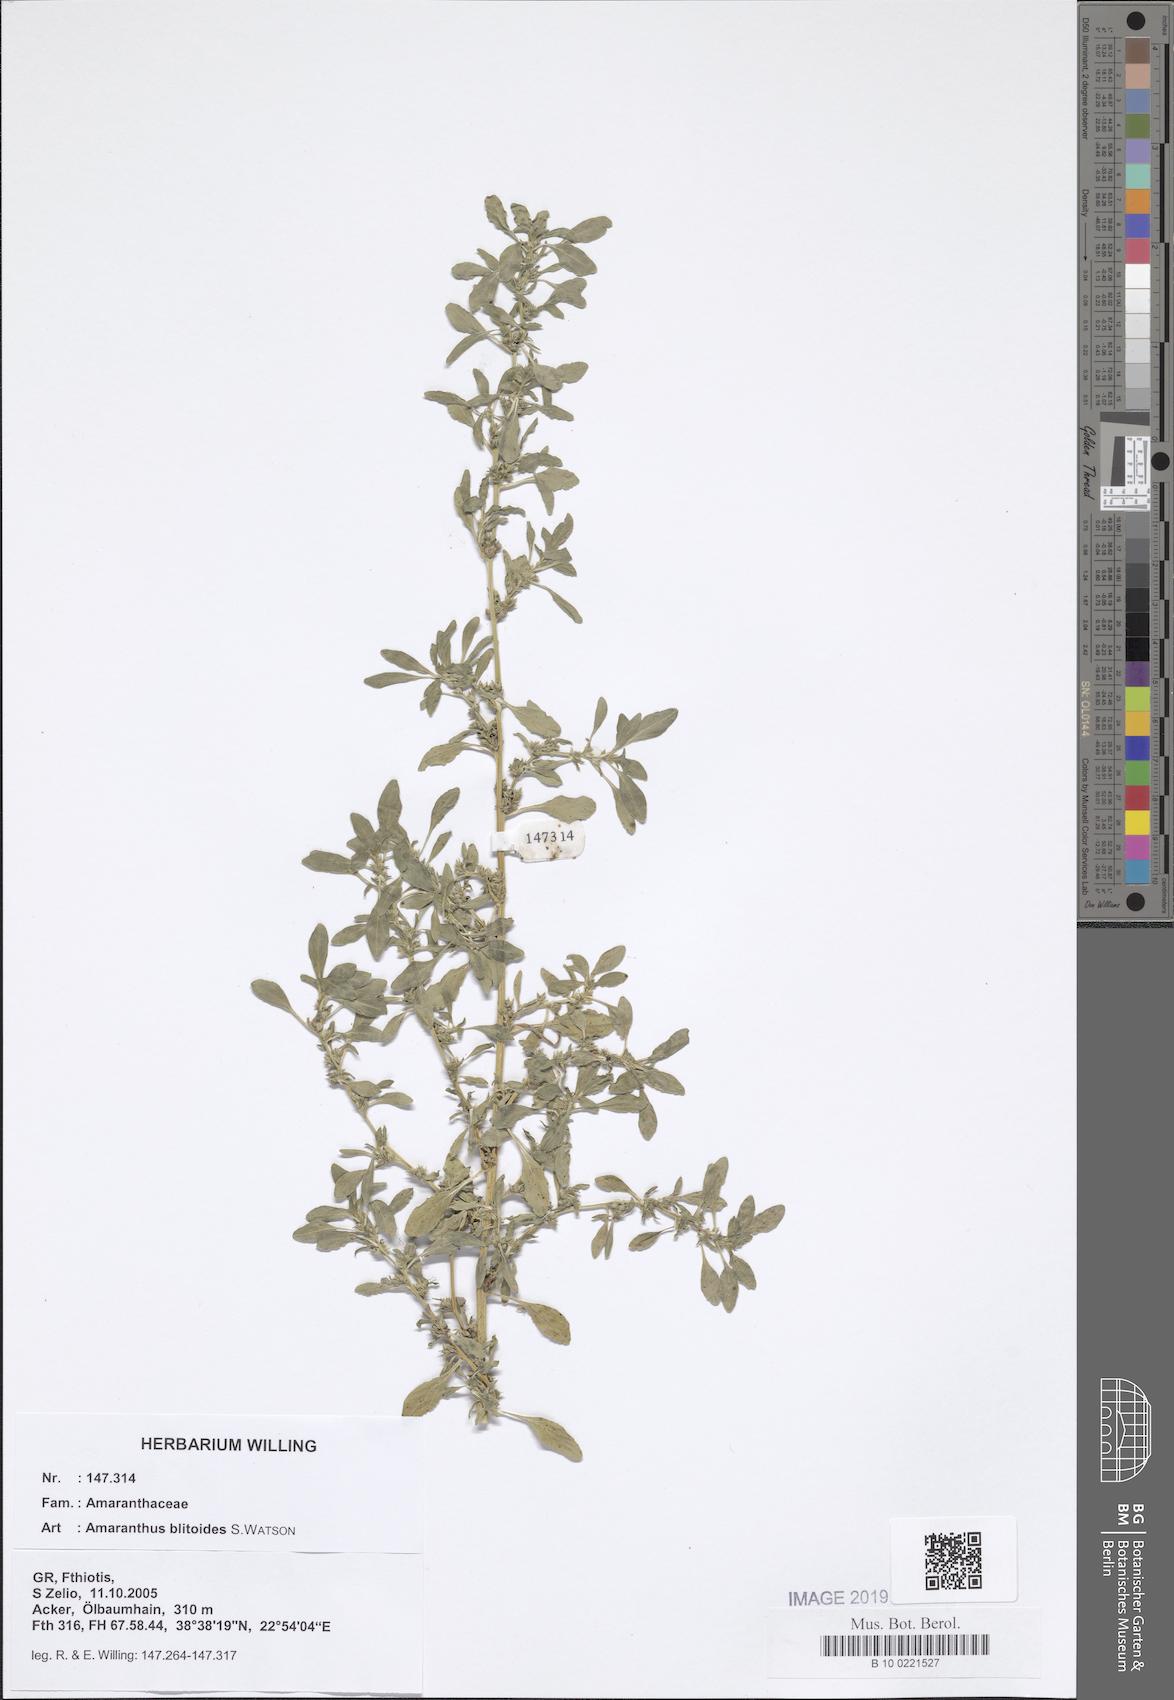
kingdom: Plantae
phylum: Tracheophyta
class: Magnoliopsida
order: Caryophyllales
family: Amaranthaceae
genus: Amaranthus
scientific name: Amaranthus blitoides
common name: Prostrate pigweed
